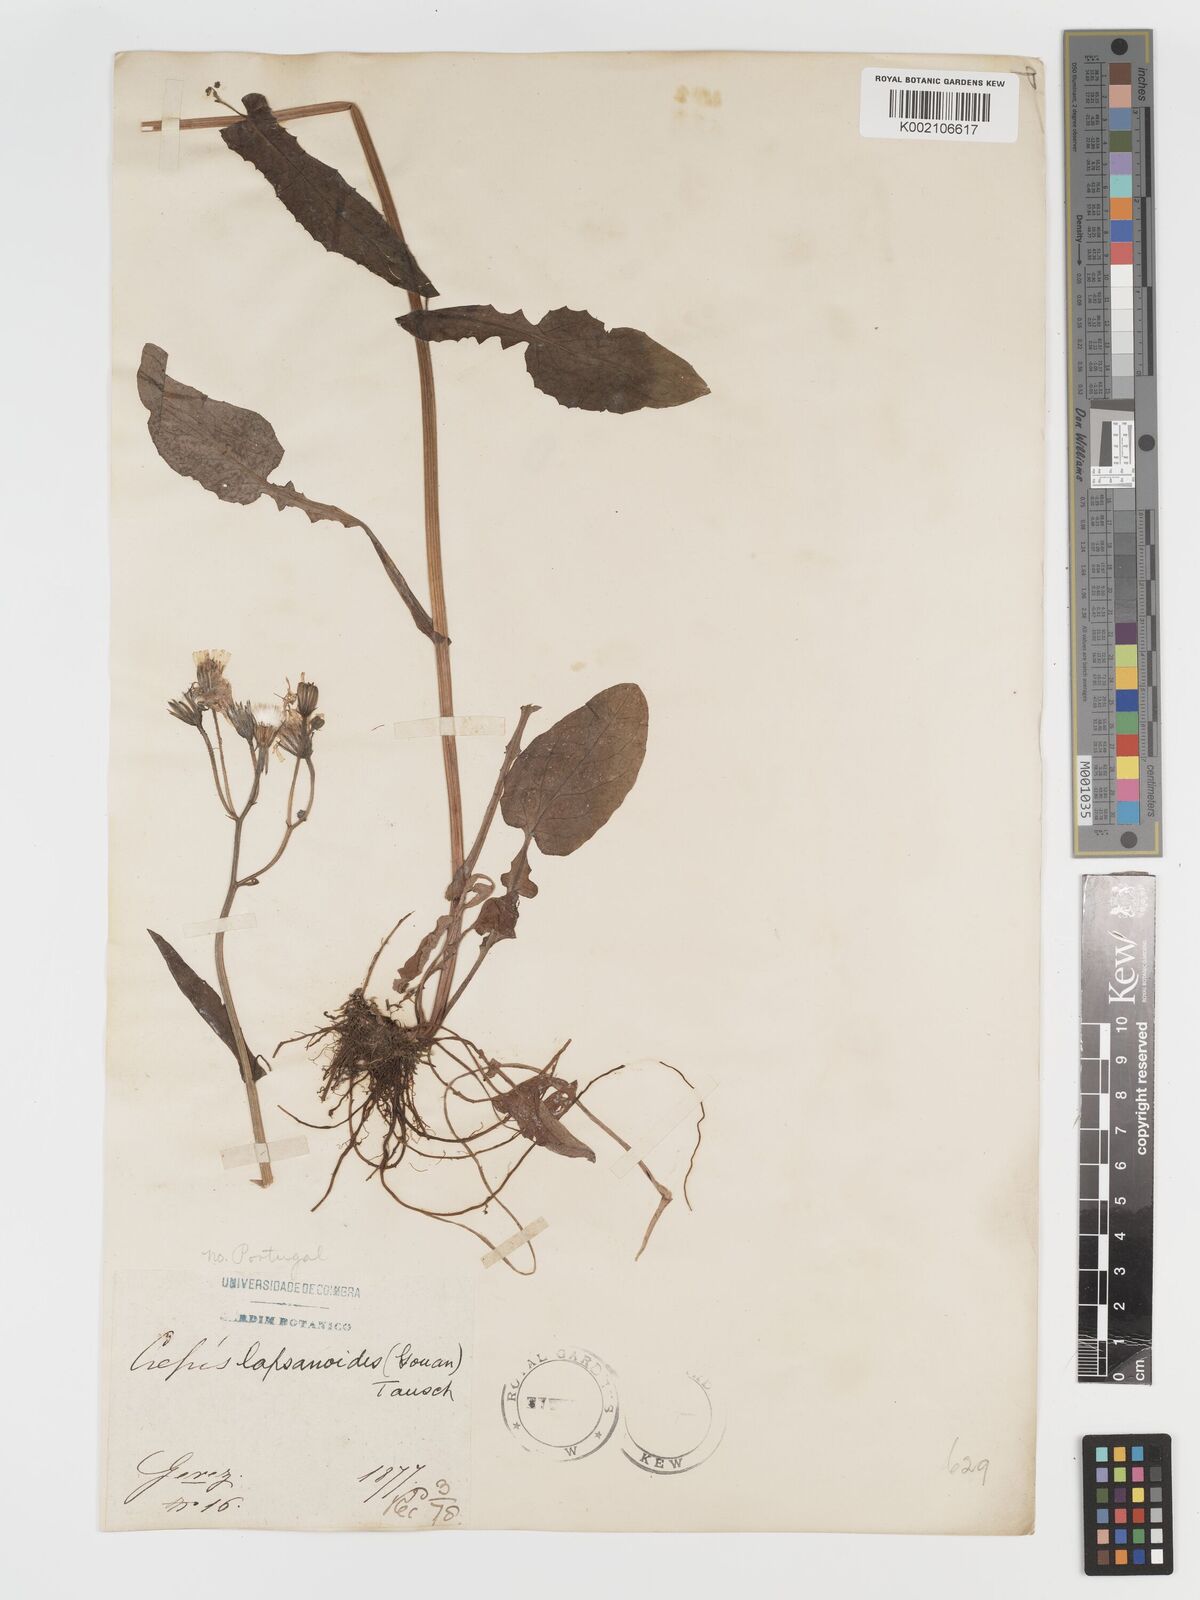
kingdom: Plantae
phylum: Tracheophyta
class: Magnoliopsida
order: Asterales
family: Asteraceae
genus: Crepis
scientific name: Crepis lampsanoides
